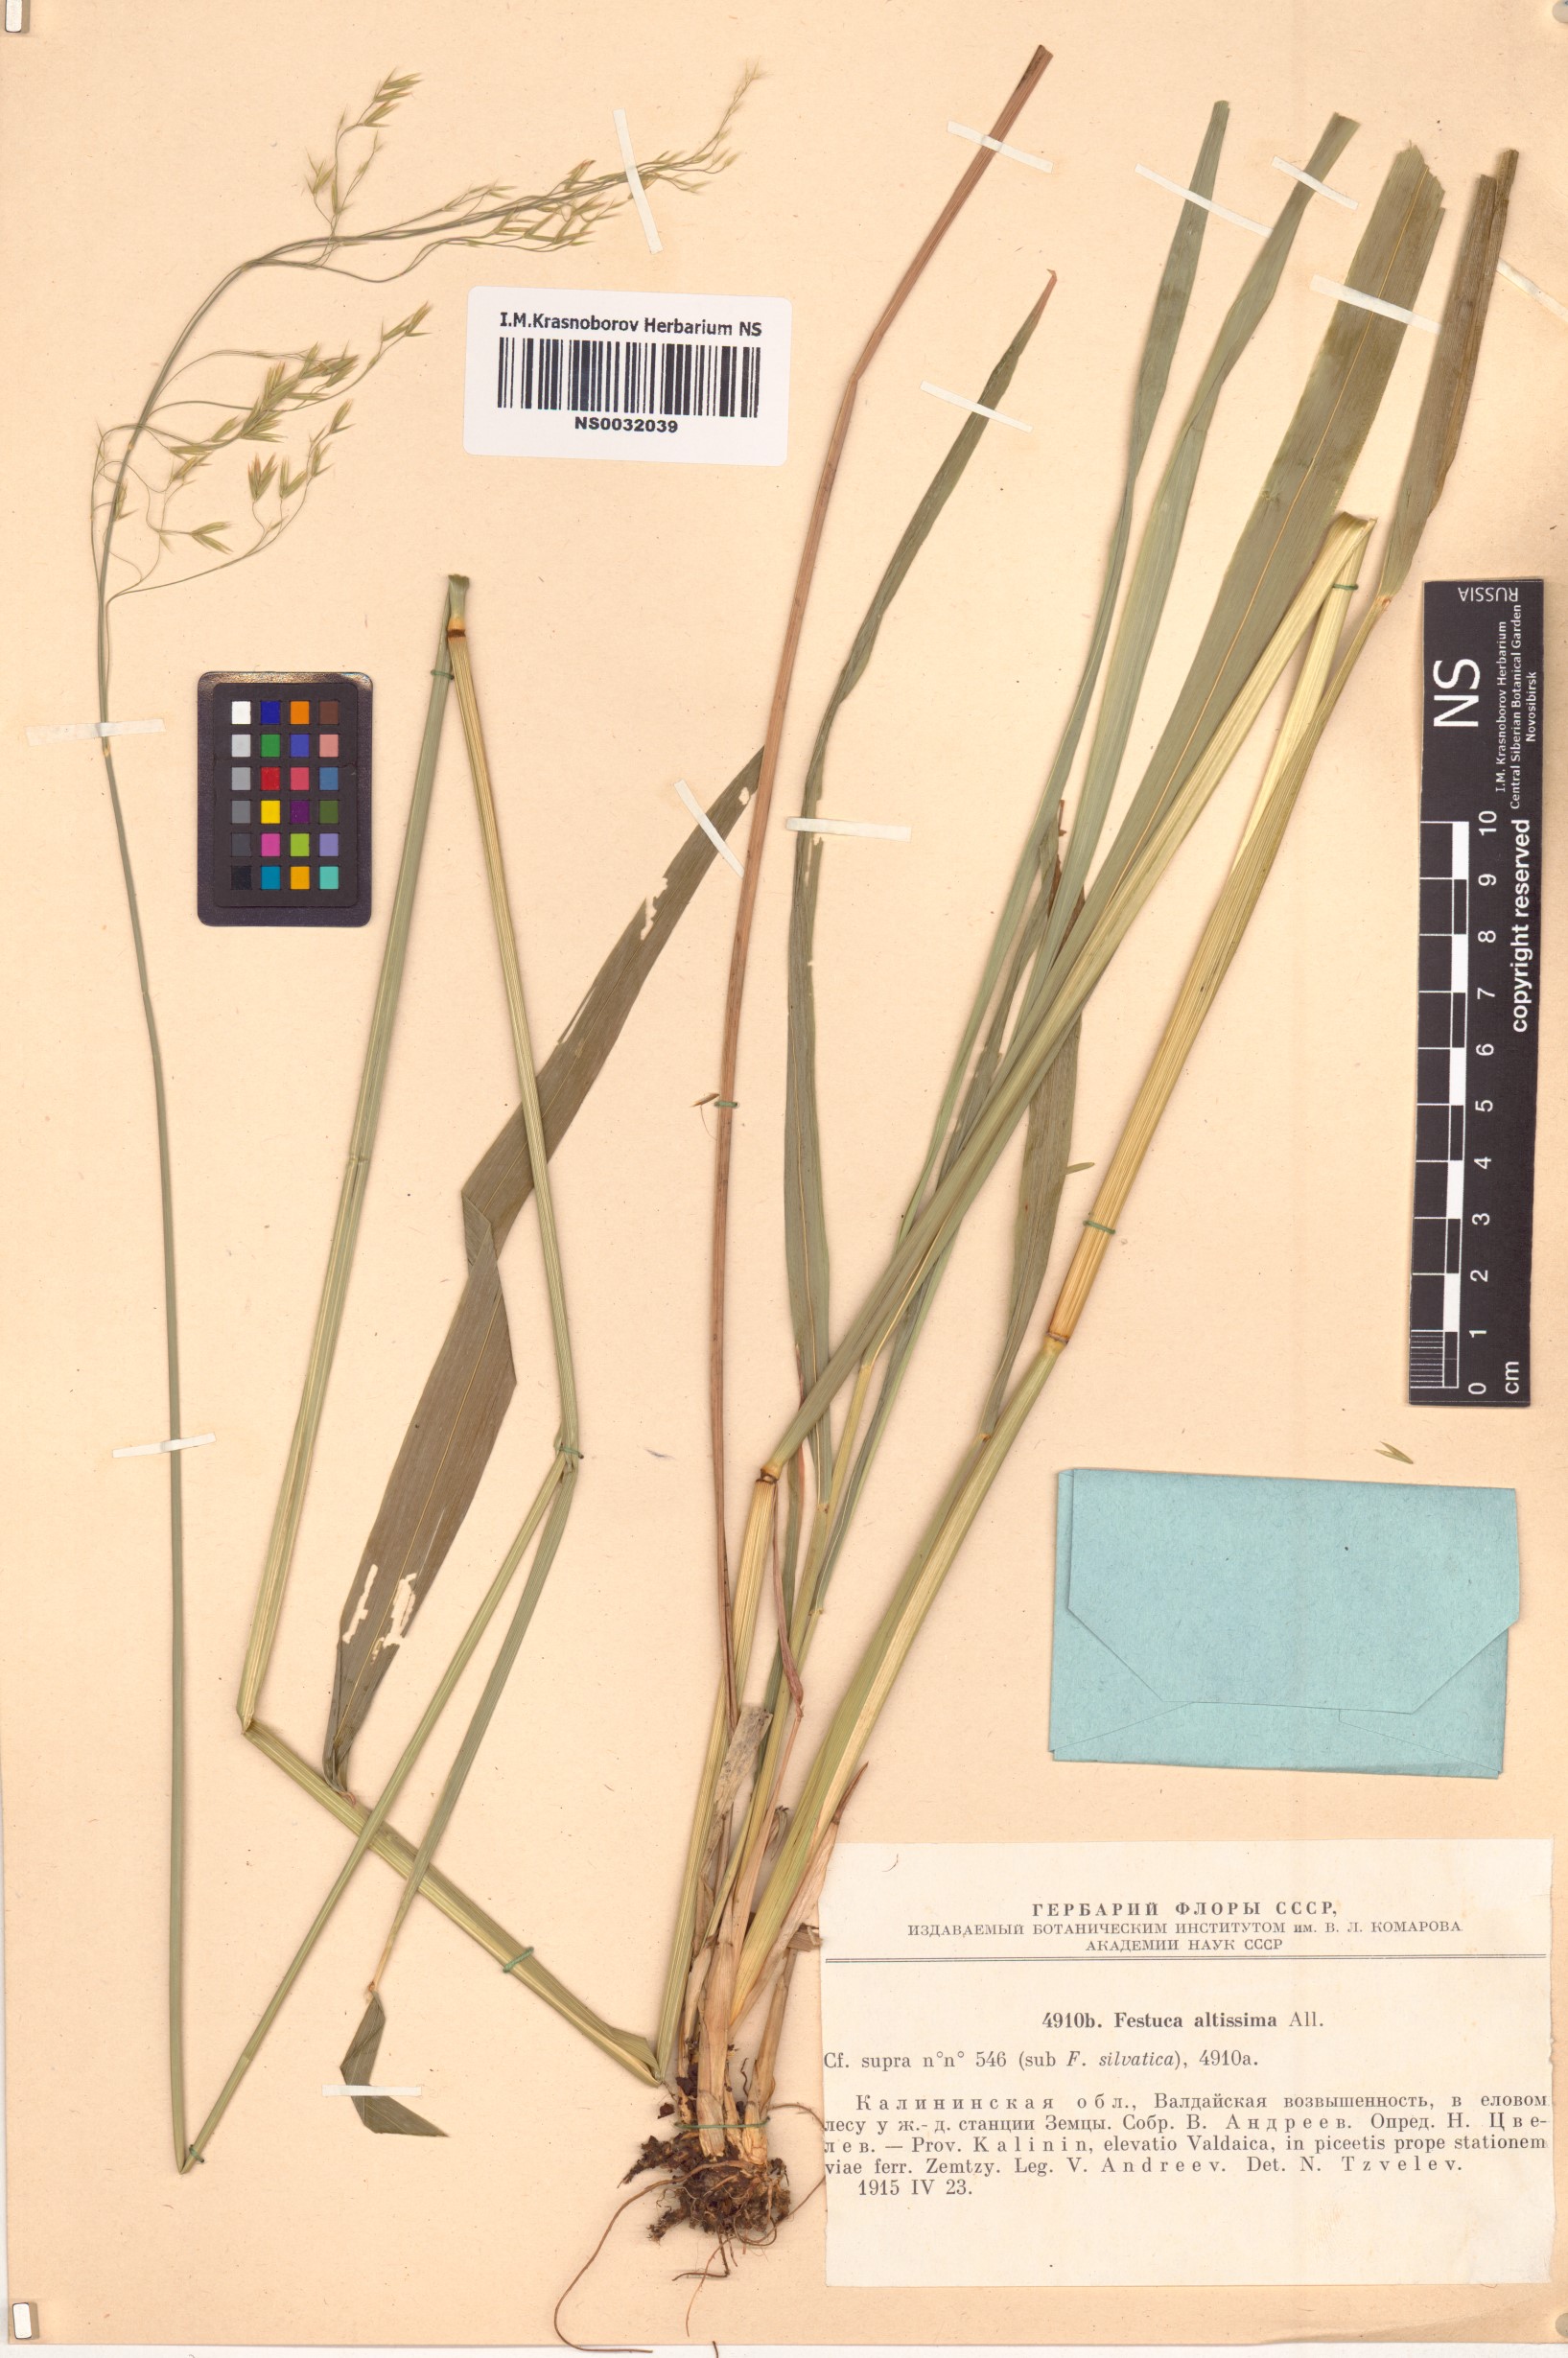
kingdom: Plantae
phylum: Tracheophyta
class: Liliopsida
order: Poales
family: Poaceae
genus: Festuca
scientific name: Festuca altissima
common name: Wood fescue
